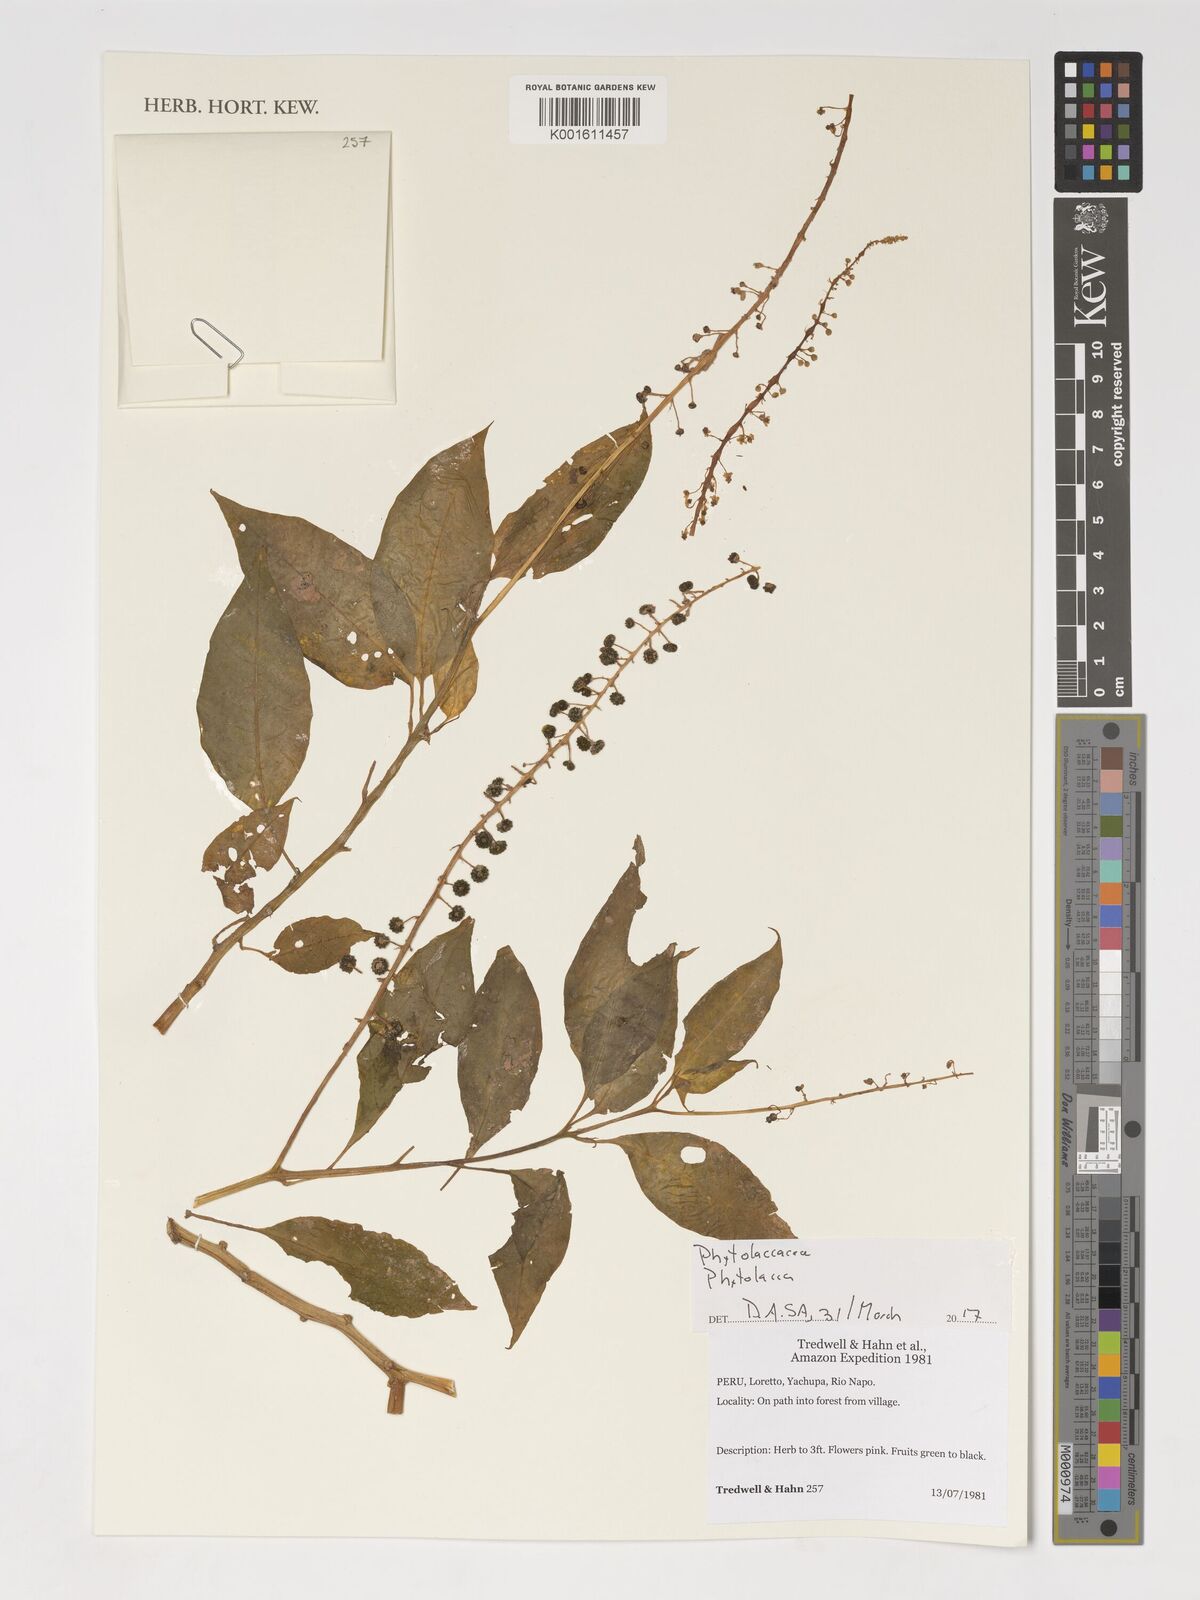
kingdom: Plantae
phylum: Tracheophyta
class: Magnoliopsida
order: Caryophyllales
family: Phytolaccaceae
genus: Phytolacca
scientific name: Phytolacca
